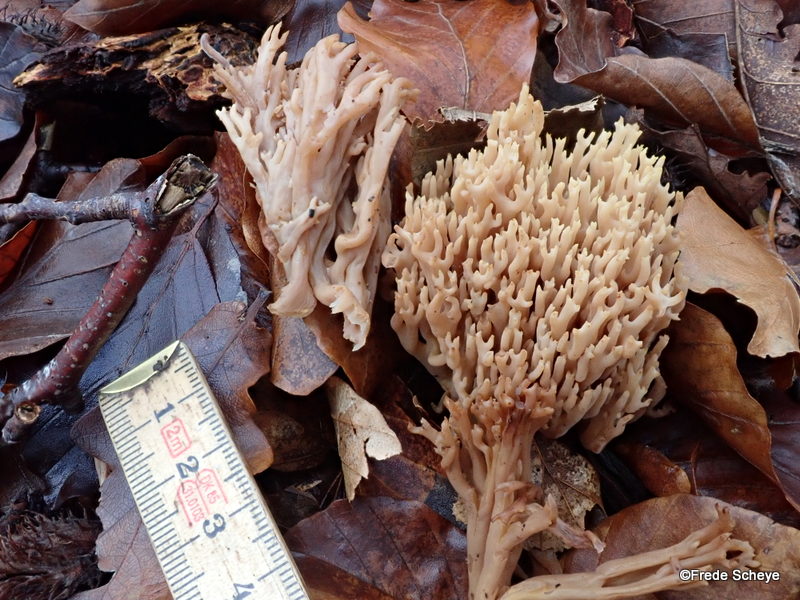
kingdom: Fungi
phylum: Basidiomycota
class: Agaricomycetes
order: Gomphales
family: Gomphaceae
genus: Ramaria
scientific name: Ramaria stricta
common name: rank koralsvamp
